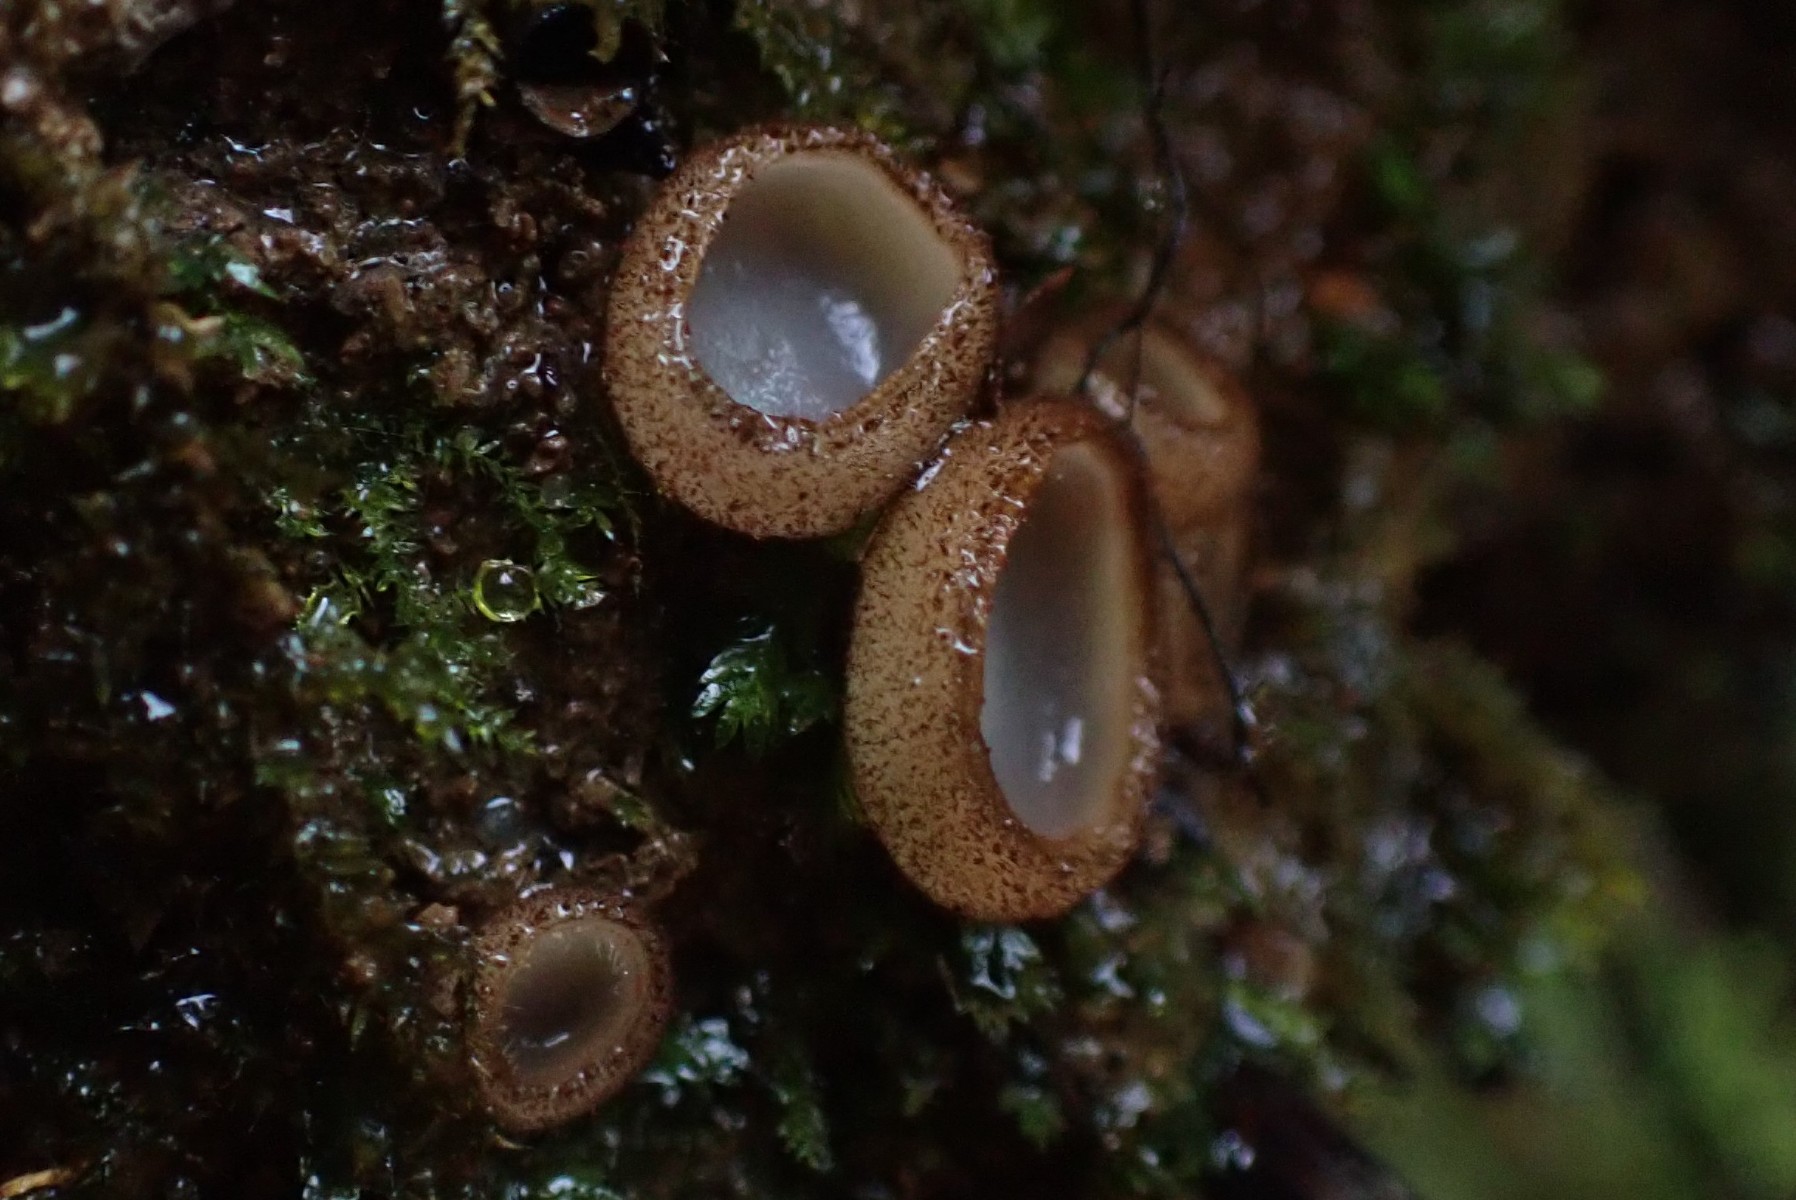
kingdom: Fungi
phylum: Ascomycota
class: Pezizomycetes
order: Pezizales
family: Pyronemataceae
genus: Humaria
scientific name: Humaria hemisphaerica
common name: halvkugleformet børstebæger
